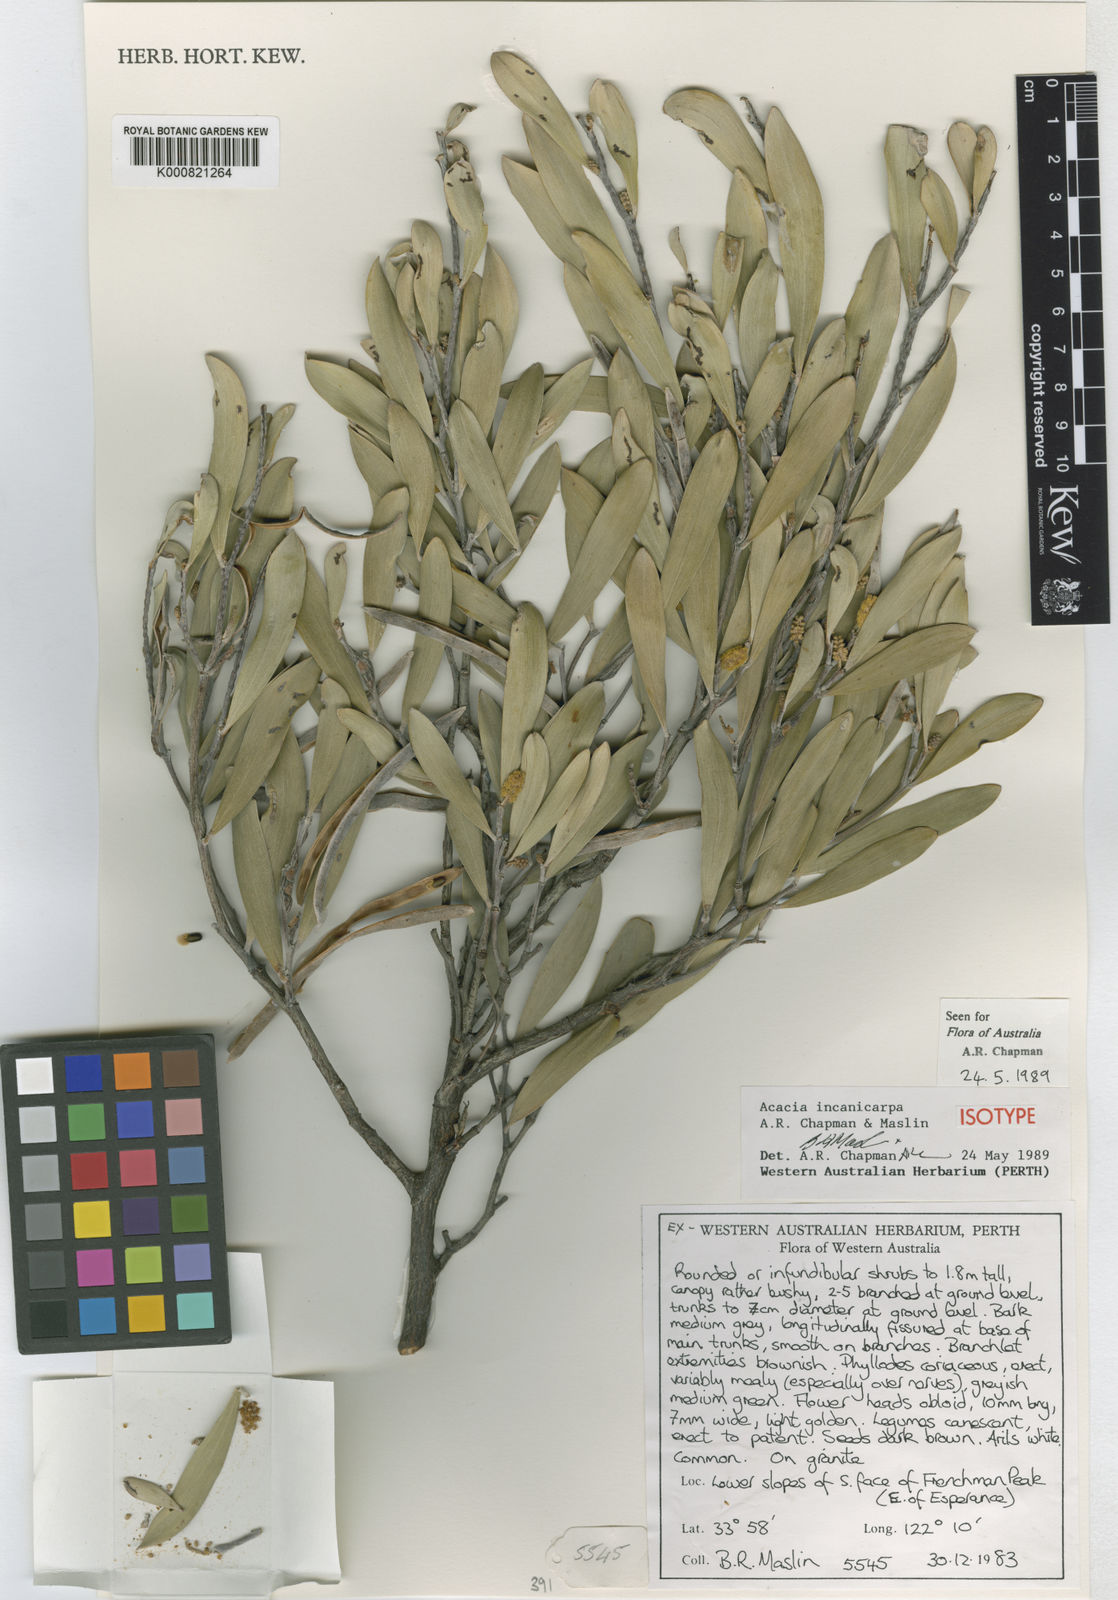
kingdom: Plantae
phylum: Tracheophyta
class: Magnoliopsida
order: Fabales
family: Fabaceae
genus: Acacia
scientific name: Acacia incanicarpa
